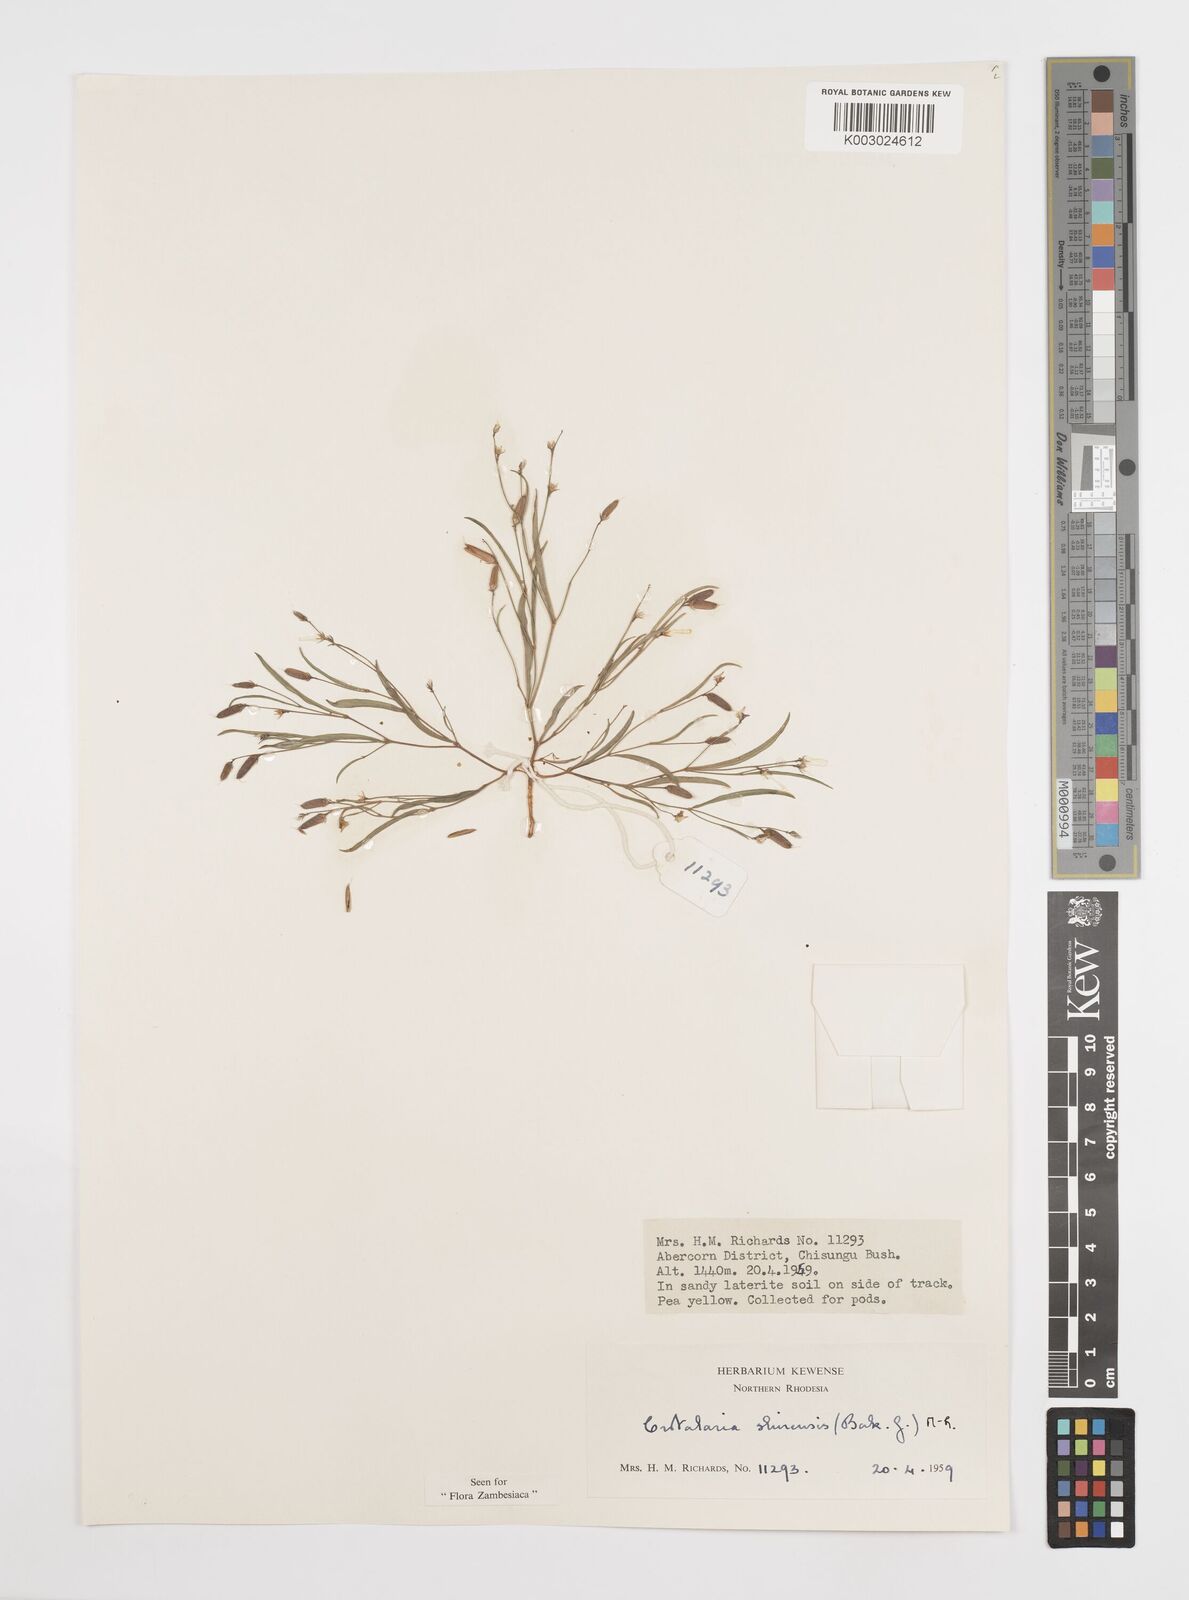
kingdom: Plantae
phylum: Tracheophyta
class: Magnoliopsida
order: Fabales
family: Fabaceae
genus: Crotalaria
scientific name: Crotalaria shirensis
